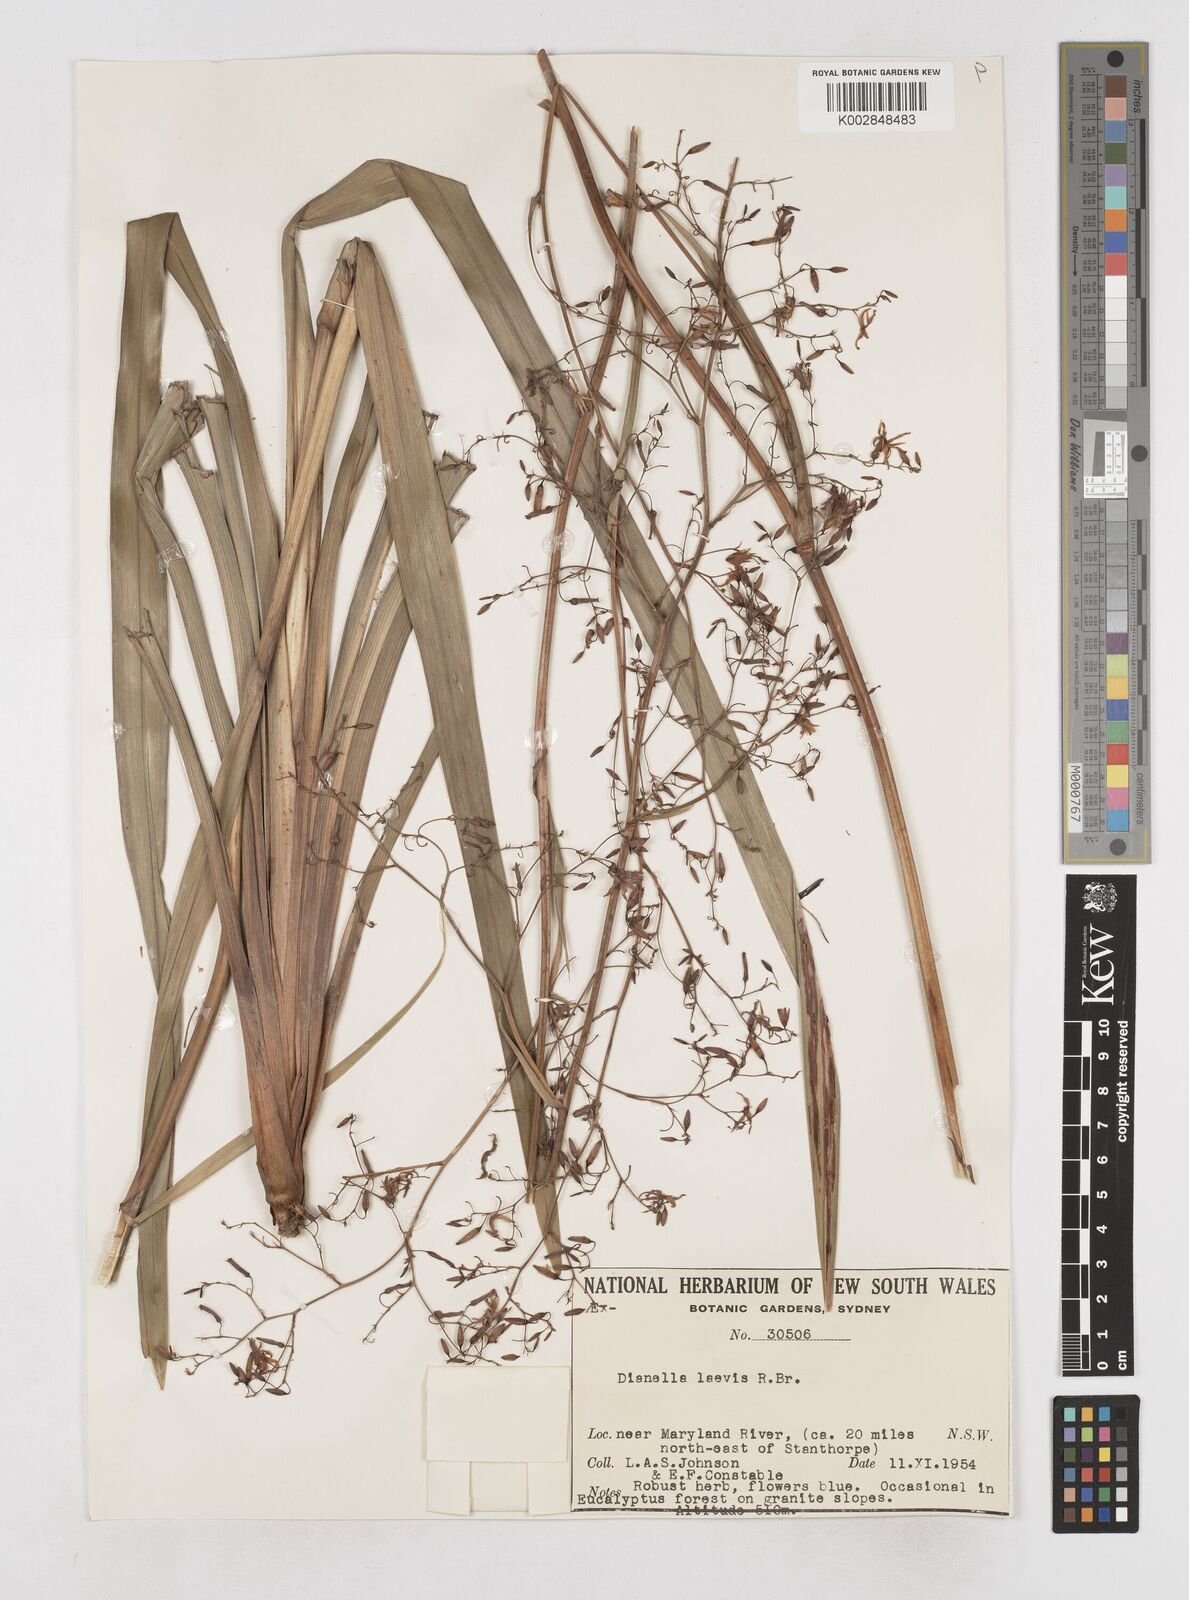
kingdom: Plantae
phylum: Tracheophyta
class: Liliopsida
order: Asparagales
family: Asphodelaceae
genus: Dianella
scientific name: Dianella longifolia
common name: Blue flax-lily
